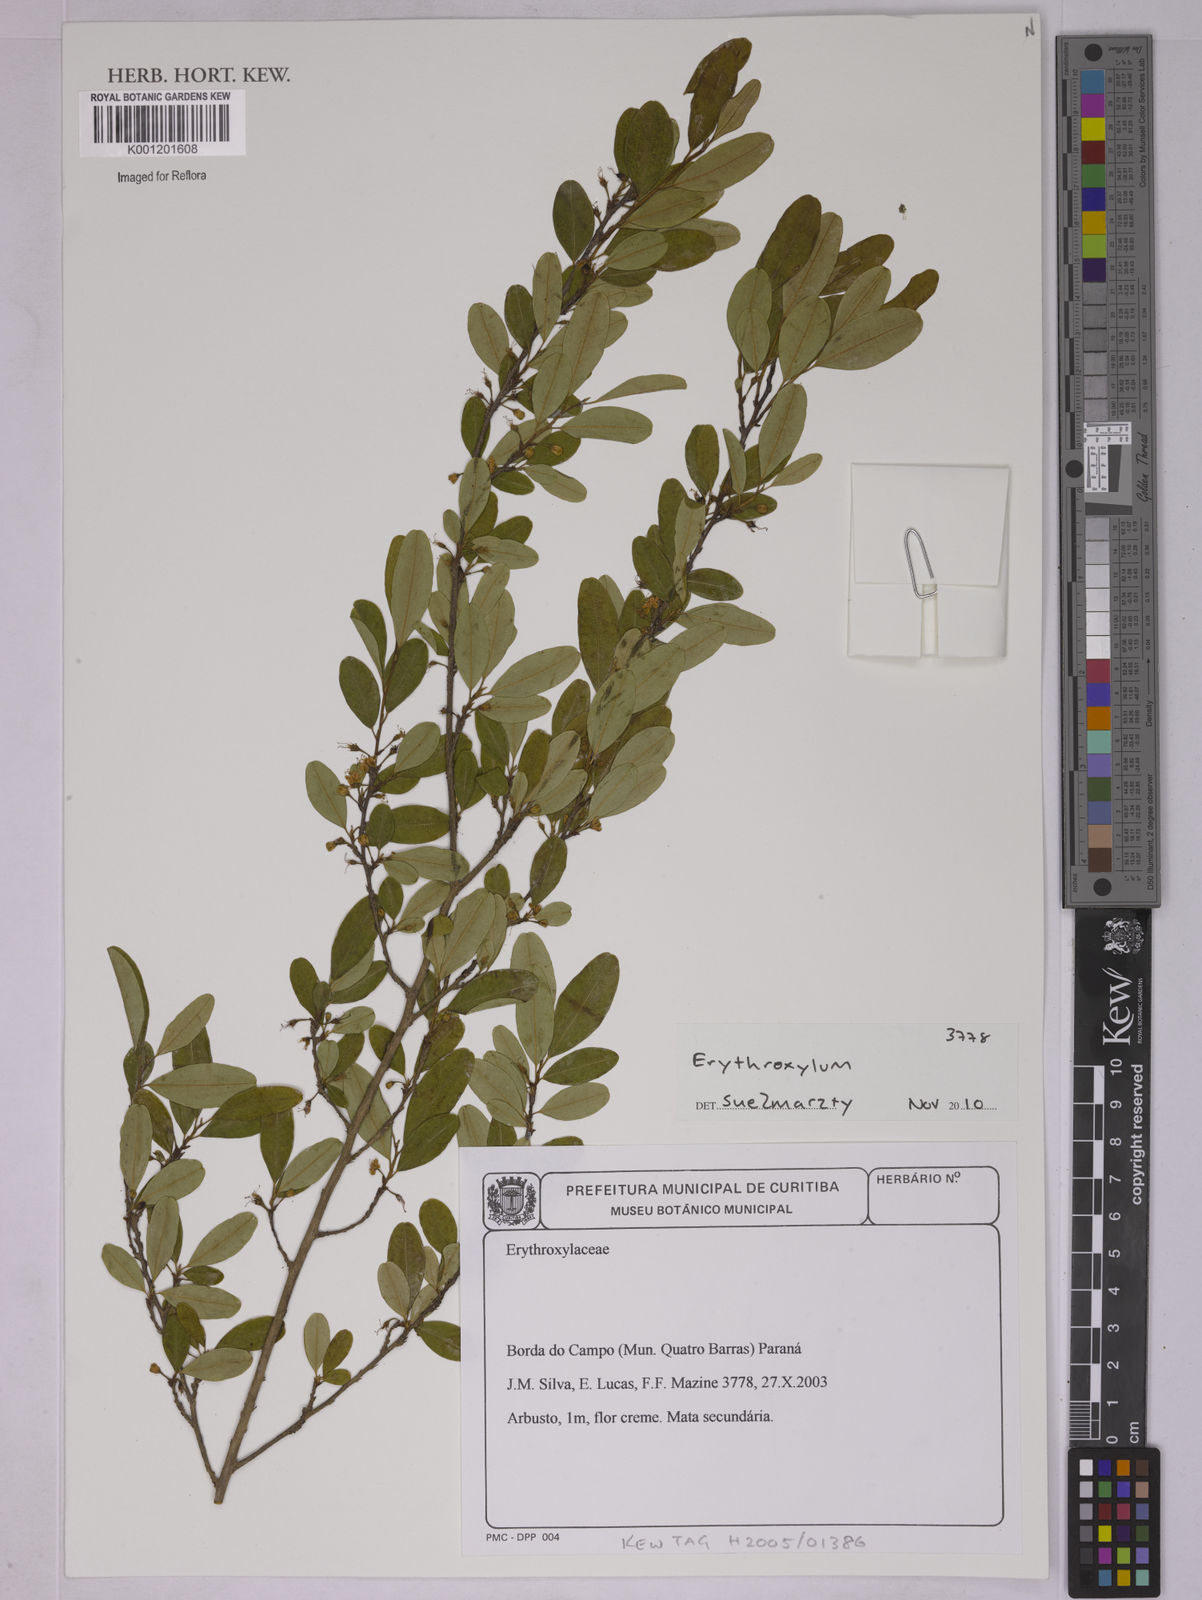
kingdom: Plantae
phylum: Tracheophyta
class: Magnoliopsida
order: Malpighiales
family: Erythroxylaceae
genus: Erythroxylum
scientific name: Erythroxylum
